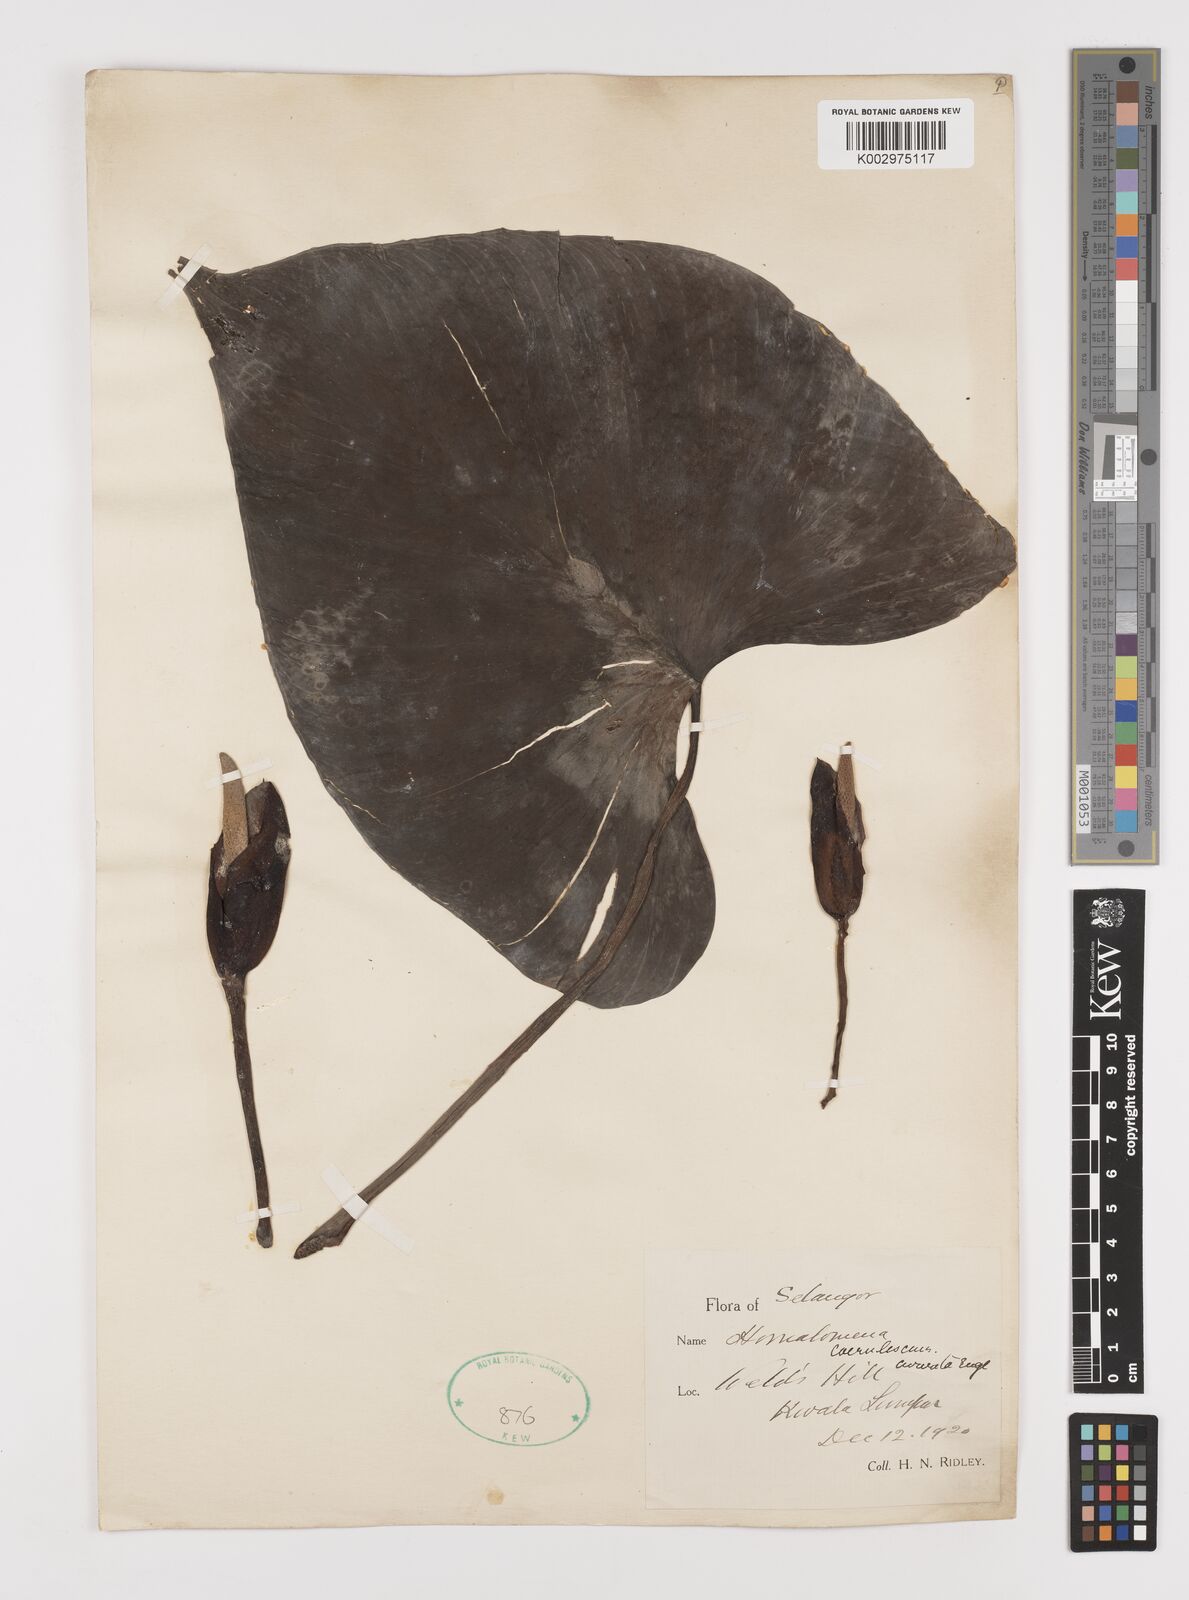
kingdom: Plantae
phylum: Tracheophyta
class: Liliopsida
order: Alismatales
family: Araceae
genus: Homalomena
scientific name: Homalomena pendula
